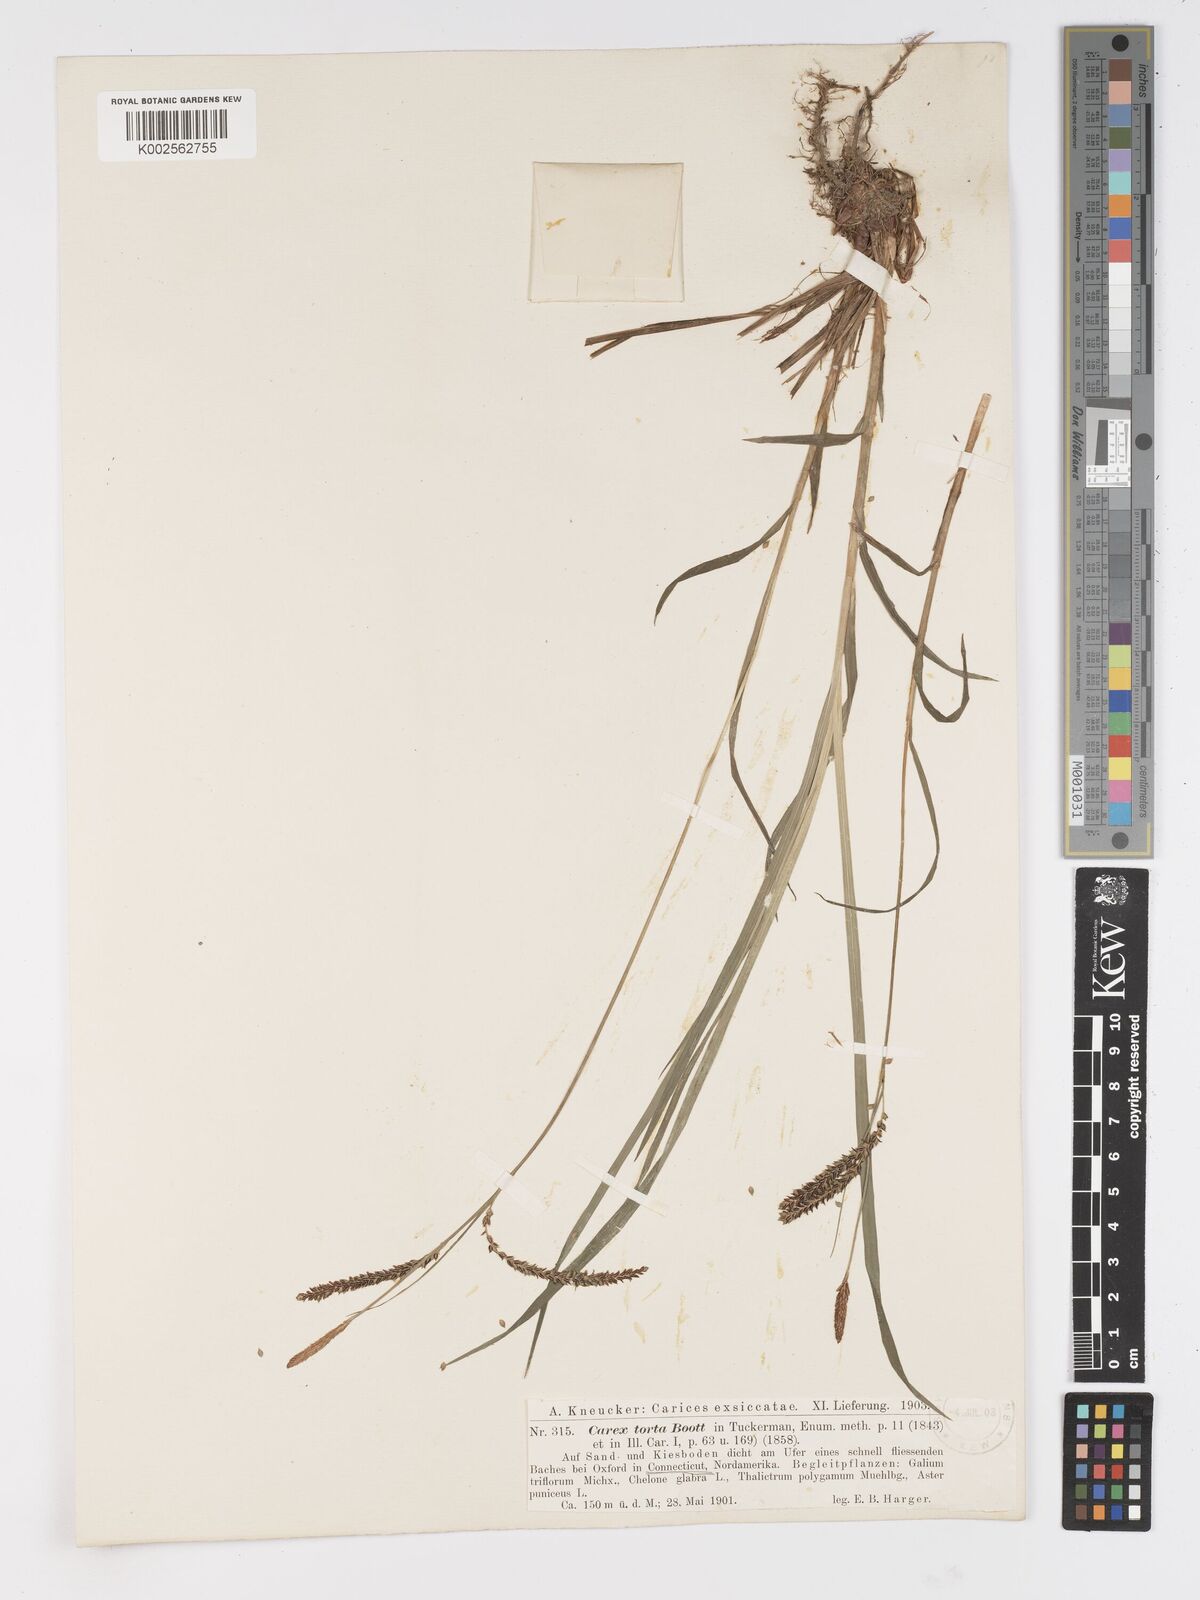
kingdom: Plantae
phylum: Tracheophyta
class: Liliopsida
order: Poales
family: Cyperaceae
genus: Carex
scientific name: Carex torta
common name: Twisted sedge
